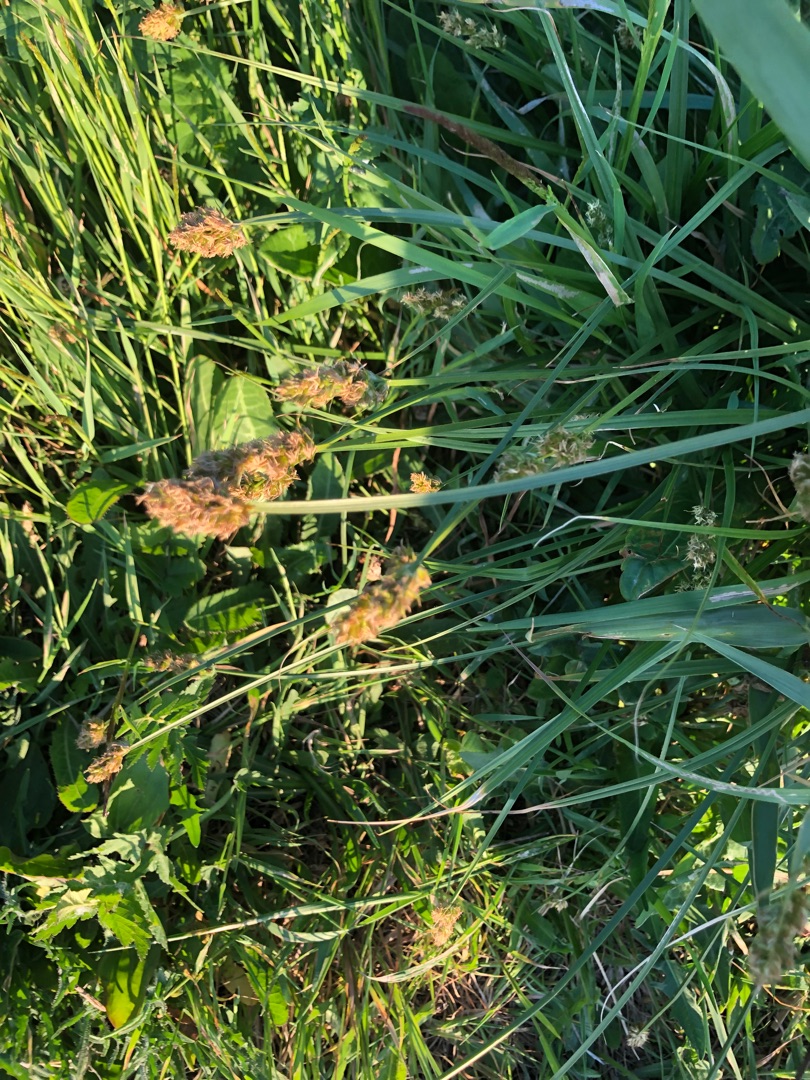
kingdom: Plantae
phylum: Tracheophyta
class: Liliopsida
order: Poales
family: Cyperaceae
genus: Carex
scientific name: Carex otrubae
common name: Sylt-star
